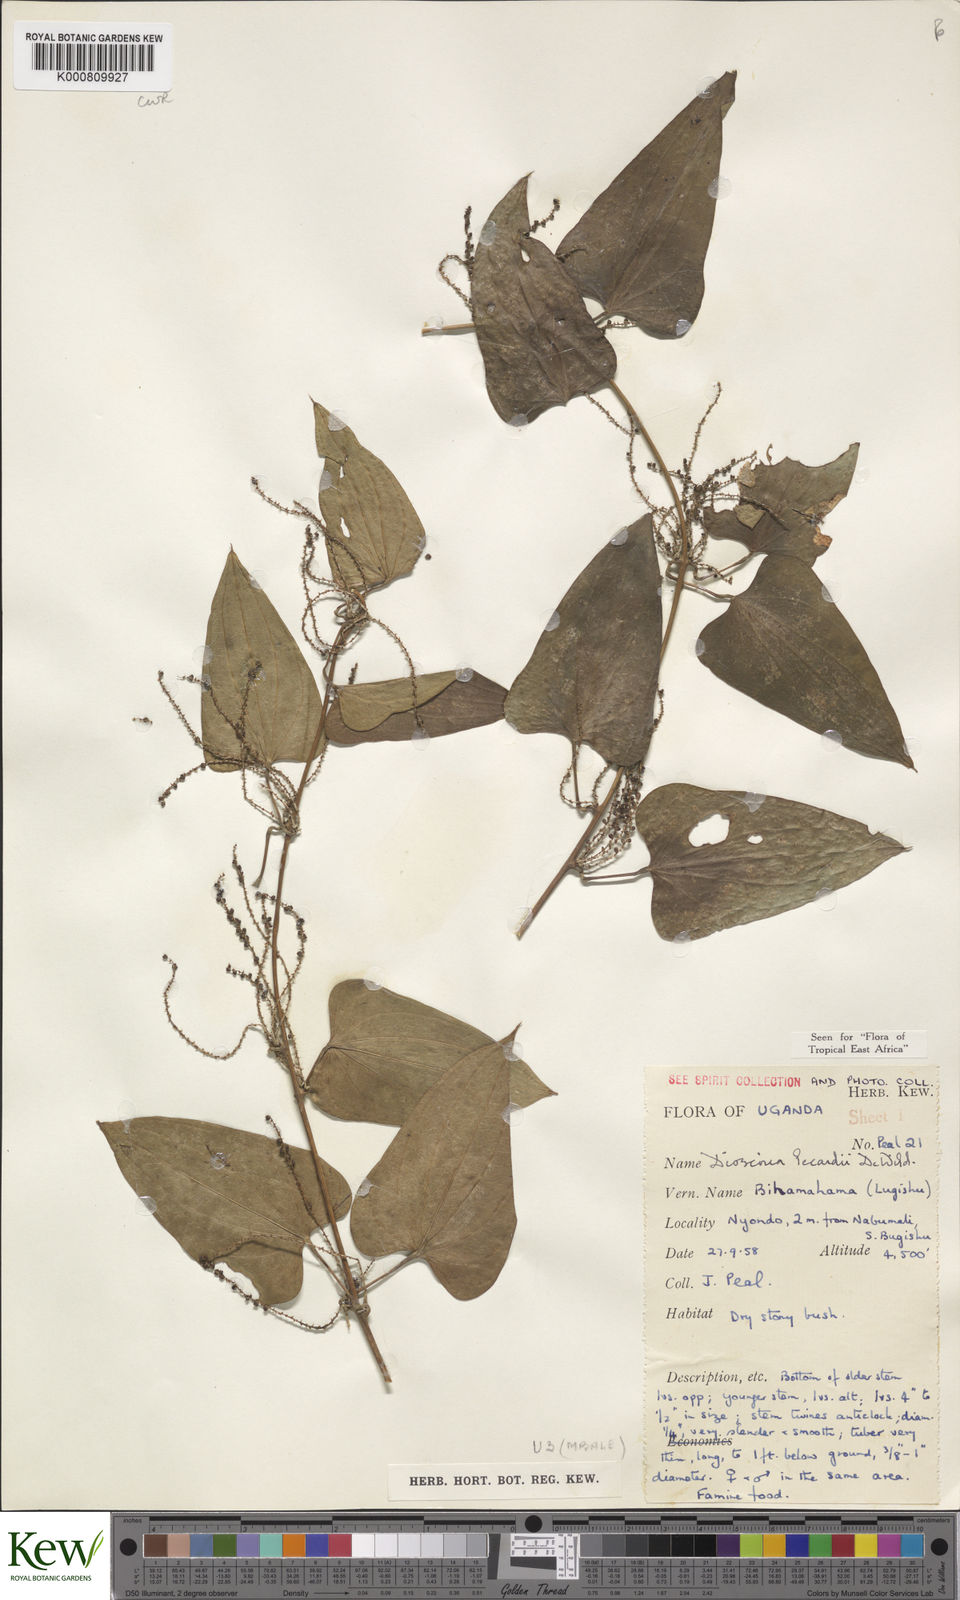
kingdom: Plantae
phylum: Tracheophyta
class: Liliopsida
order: Dioscoreales
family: Dioscoreaceae
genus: Dioscorea
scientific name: Dioscorea sagittifolia
